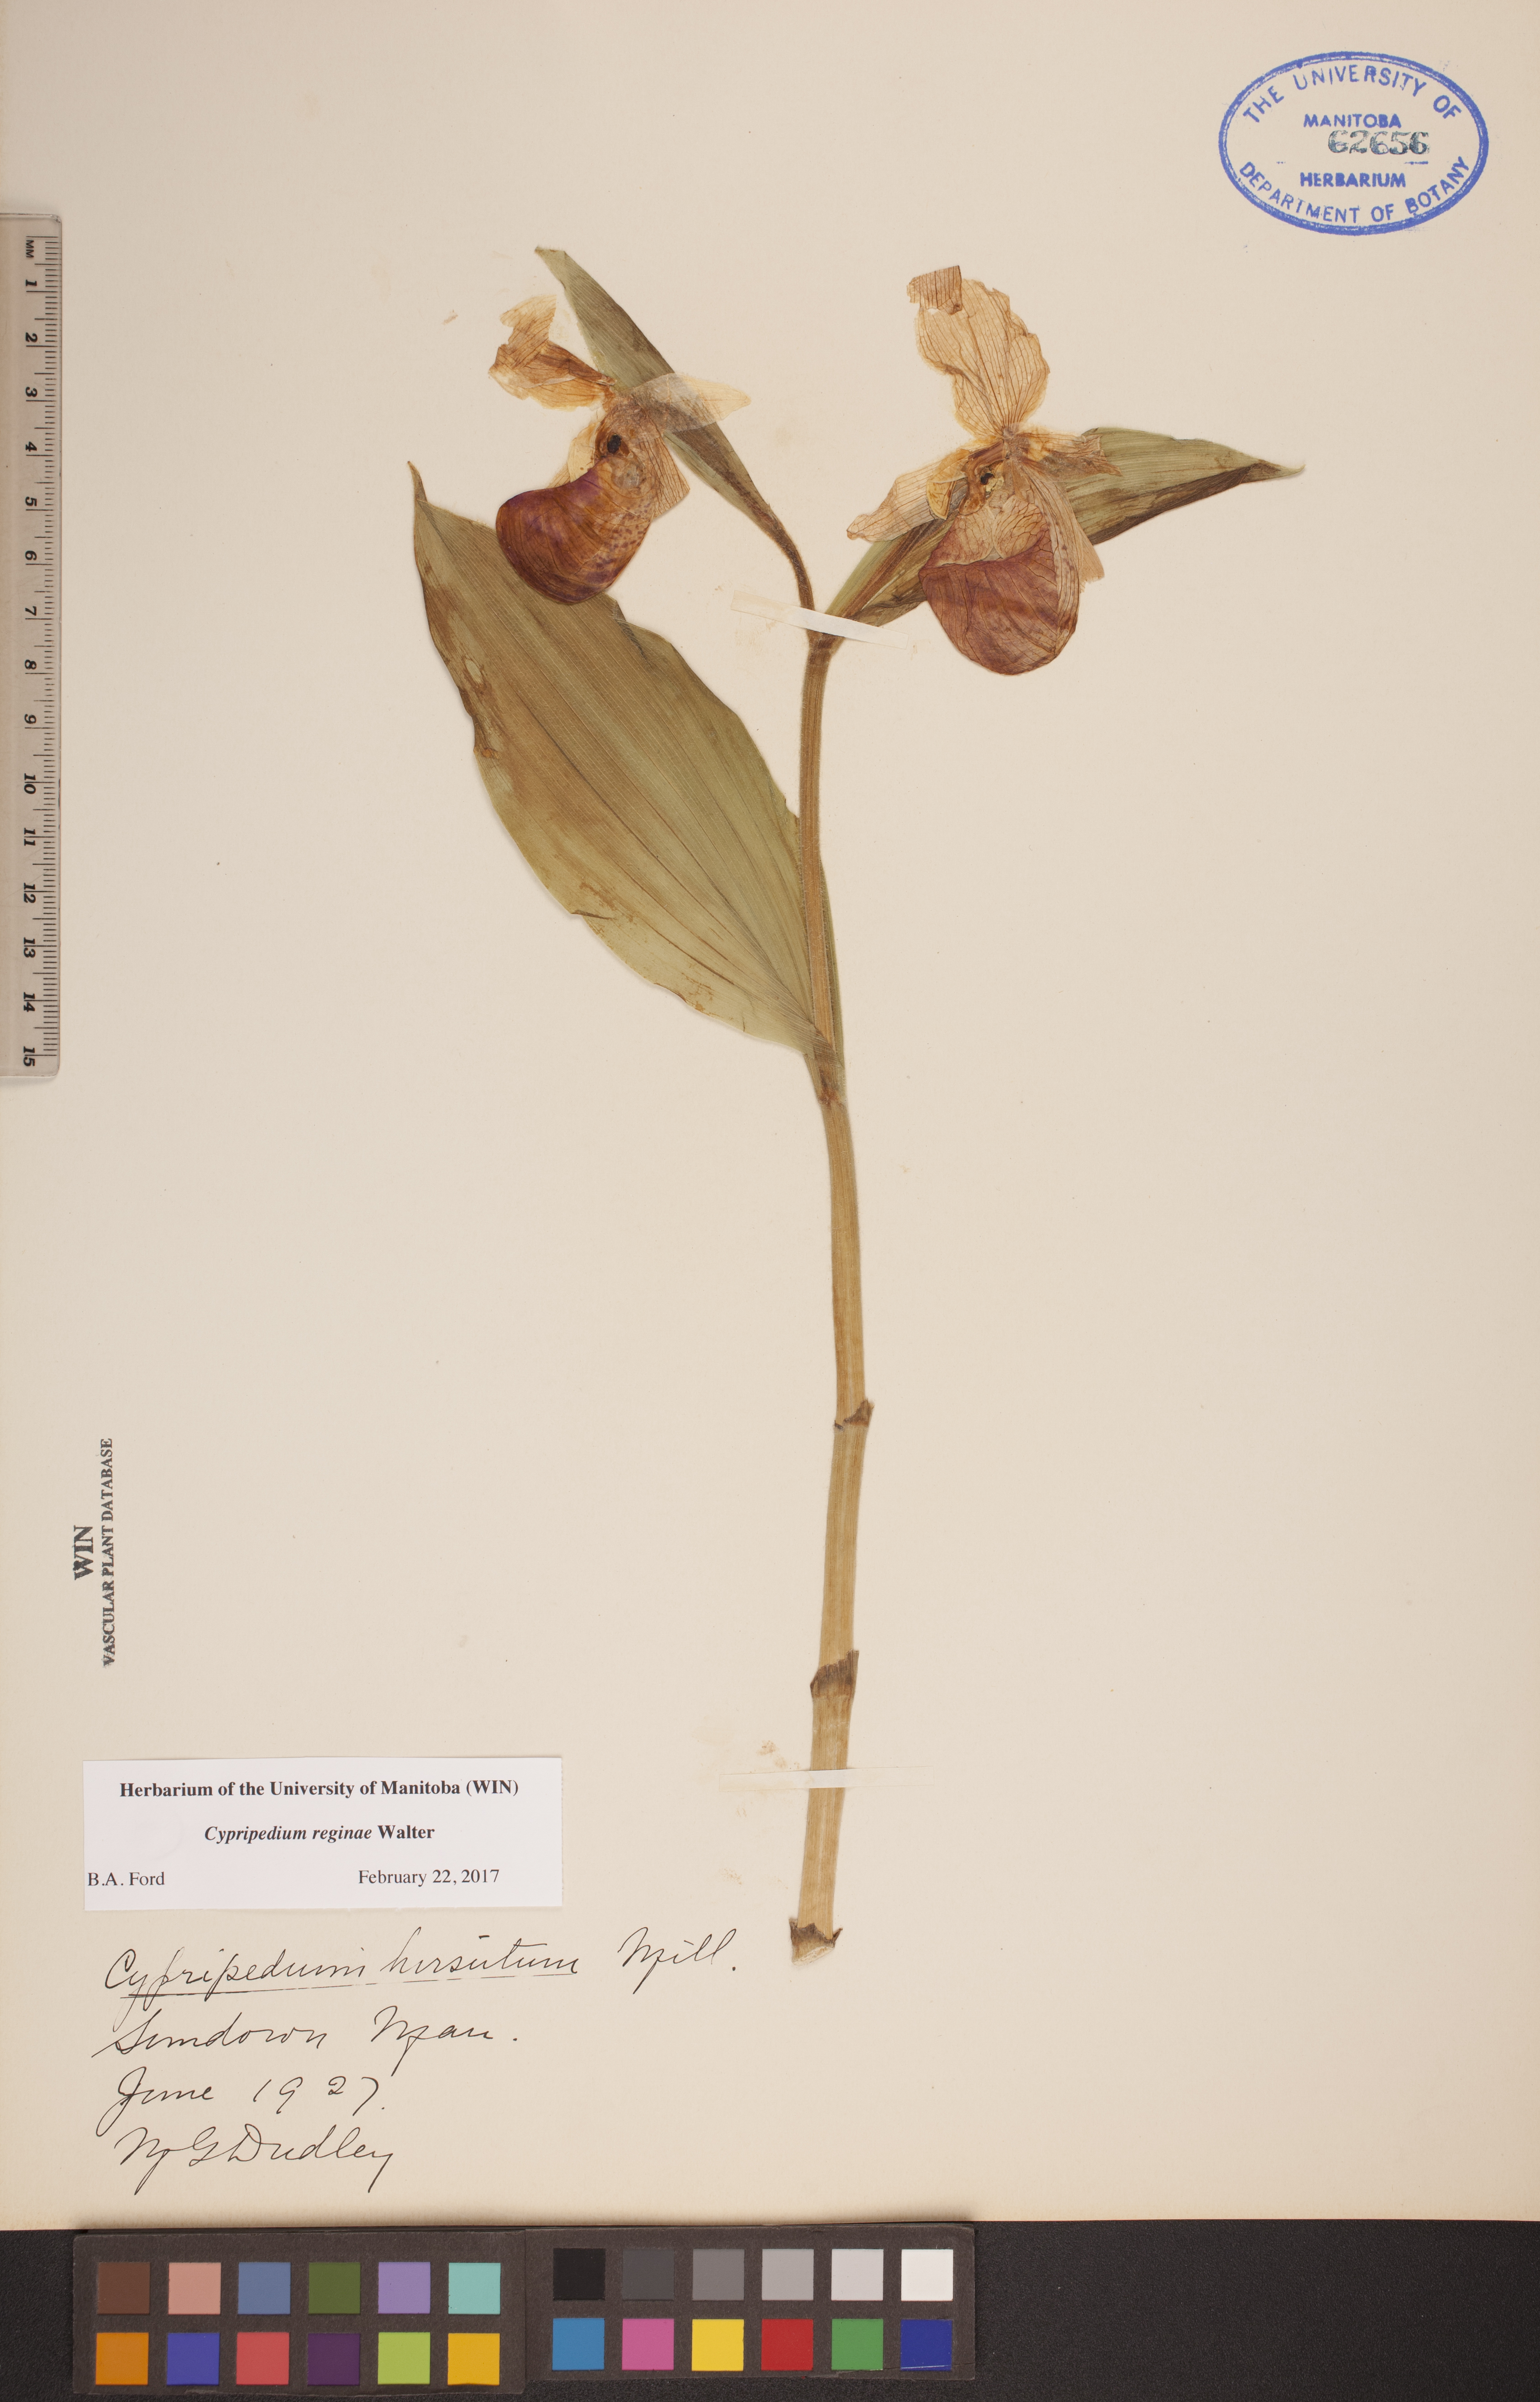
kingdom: Plantae
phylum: Tracheophyta
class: Liliopsida
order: Asparagales
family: Orchidaceae
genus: Cypripedium
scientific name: Cypripedium reginae
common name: Queen lady's-slipper
